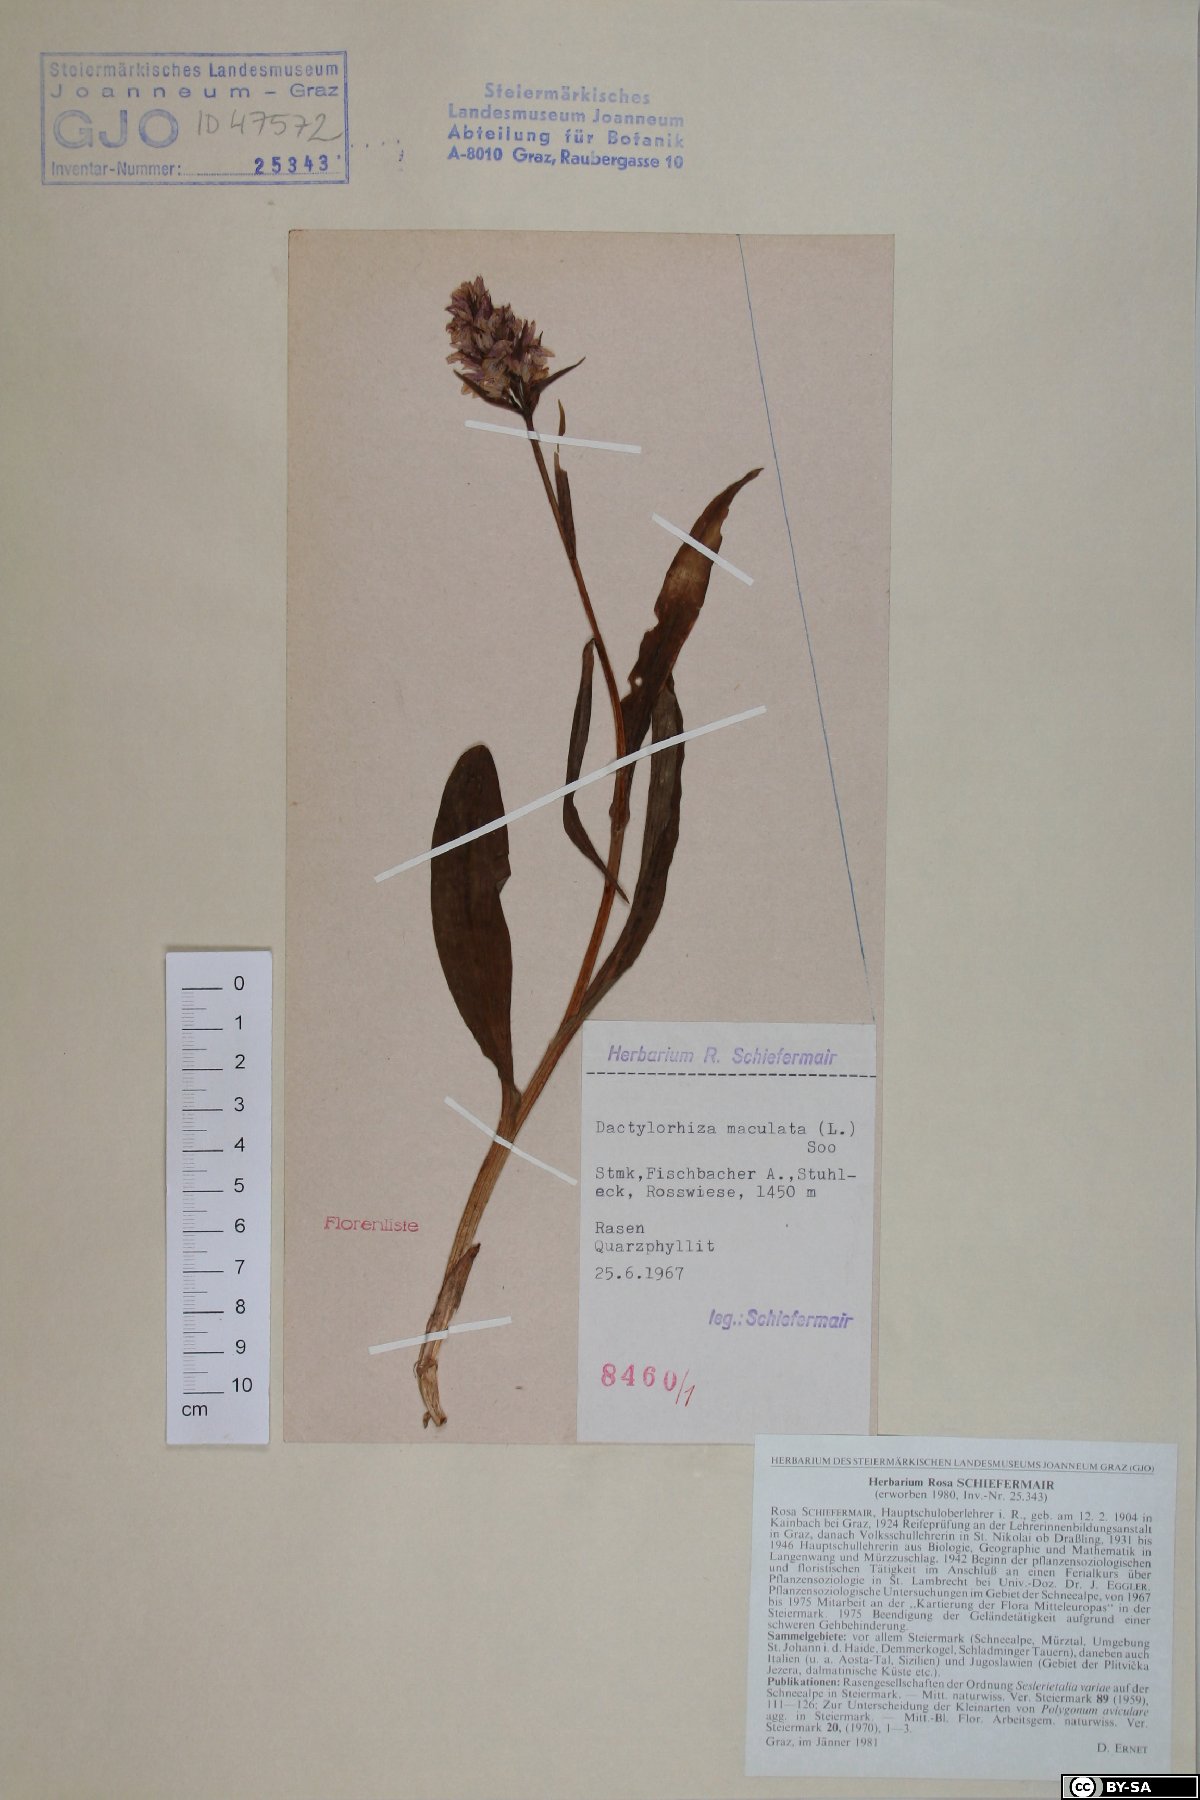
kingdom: Plantae
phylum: Tracheophyta
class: Liliopsida
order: Asparagales
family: Orchidaceae
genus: Dactylorhiza
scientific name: Dactylorhiza maculata
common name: Heath spotted-orchid
